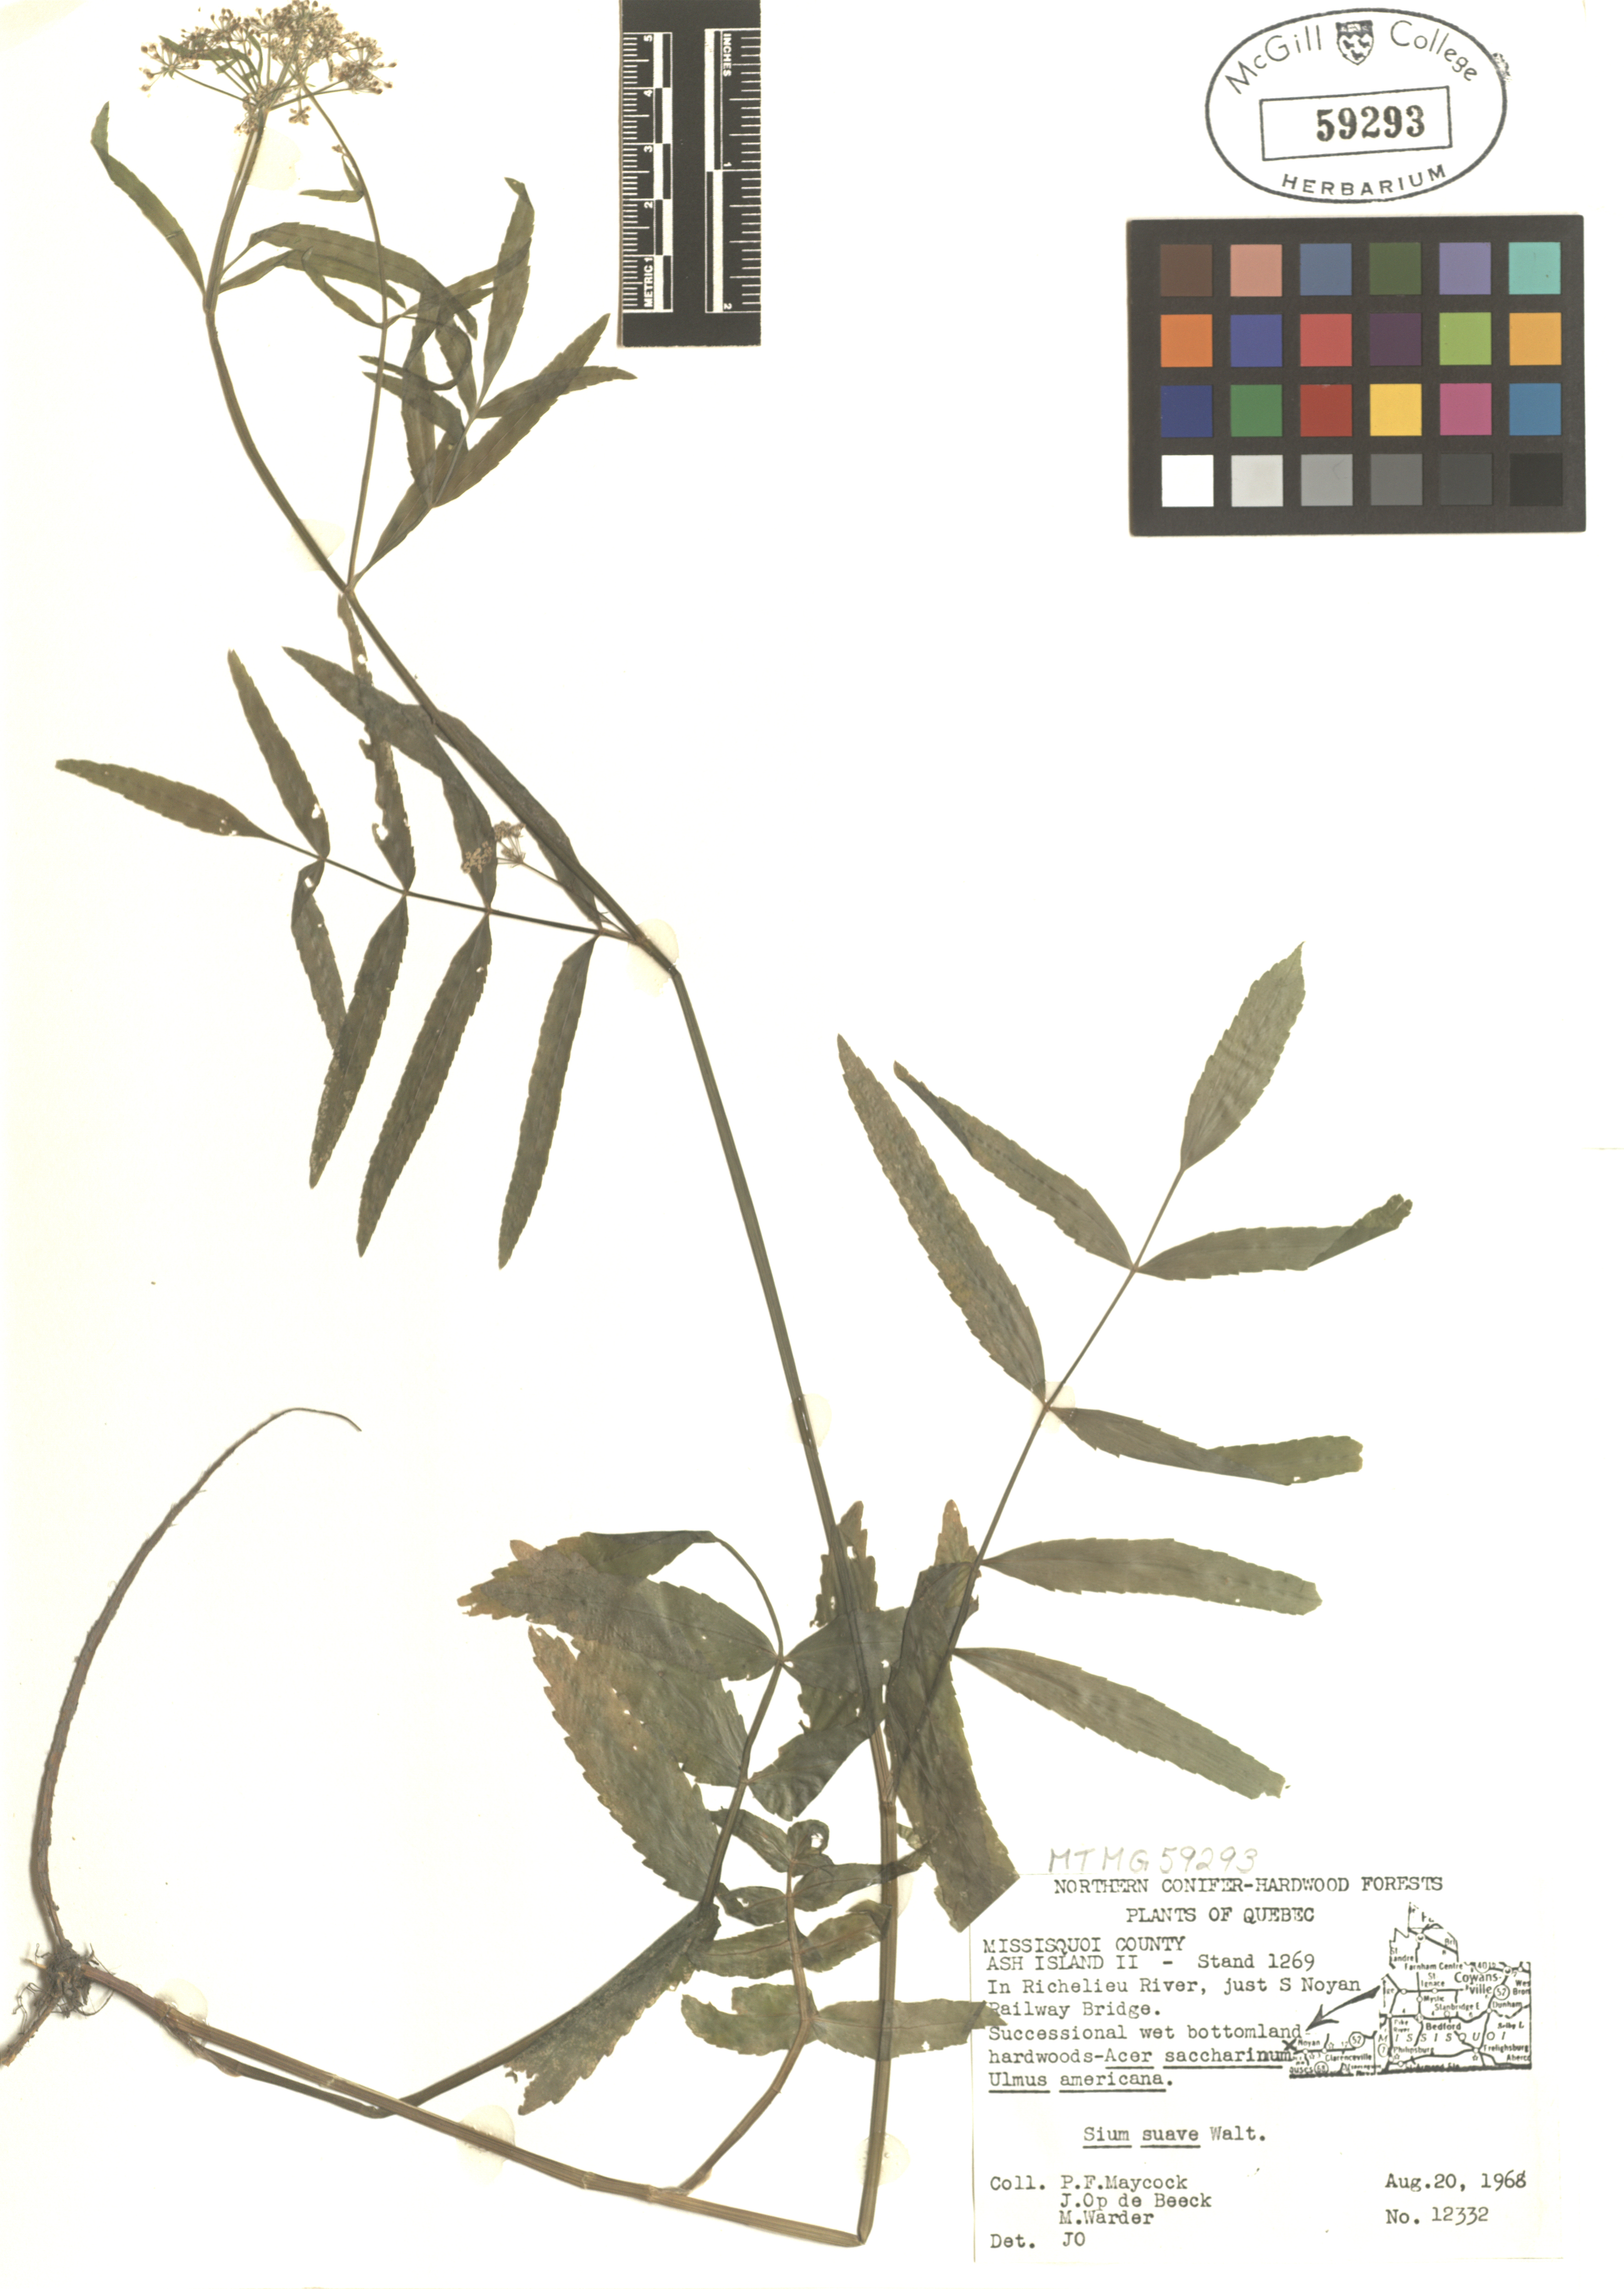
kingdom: Plantae
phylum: Tracheophyta
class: Magnoliopsida
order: Apiales
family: Apiaceae
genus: Sium
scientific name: Sium suave
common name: Hemlock water-parsnip
